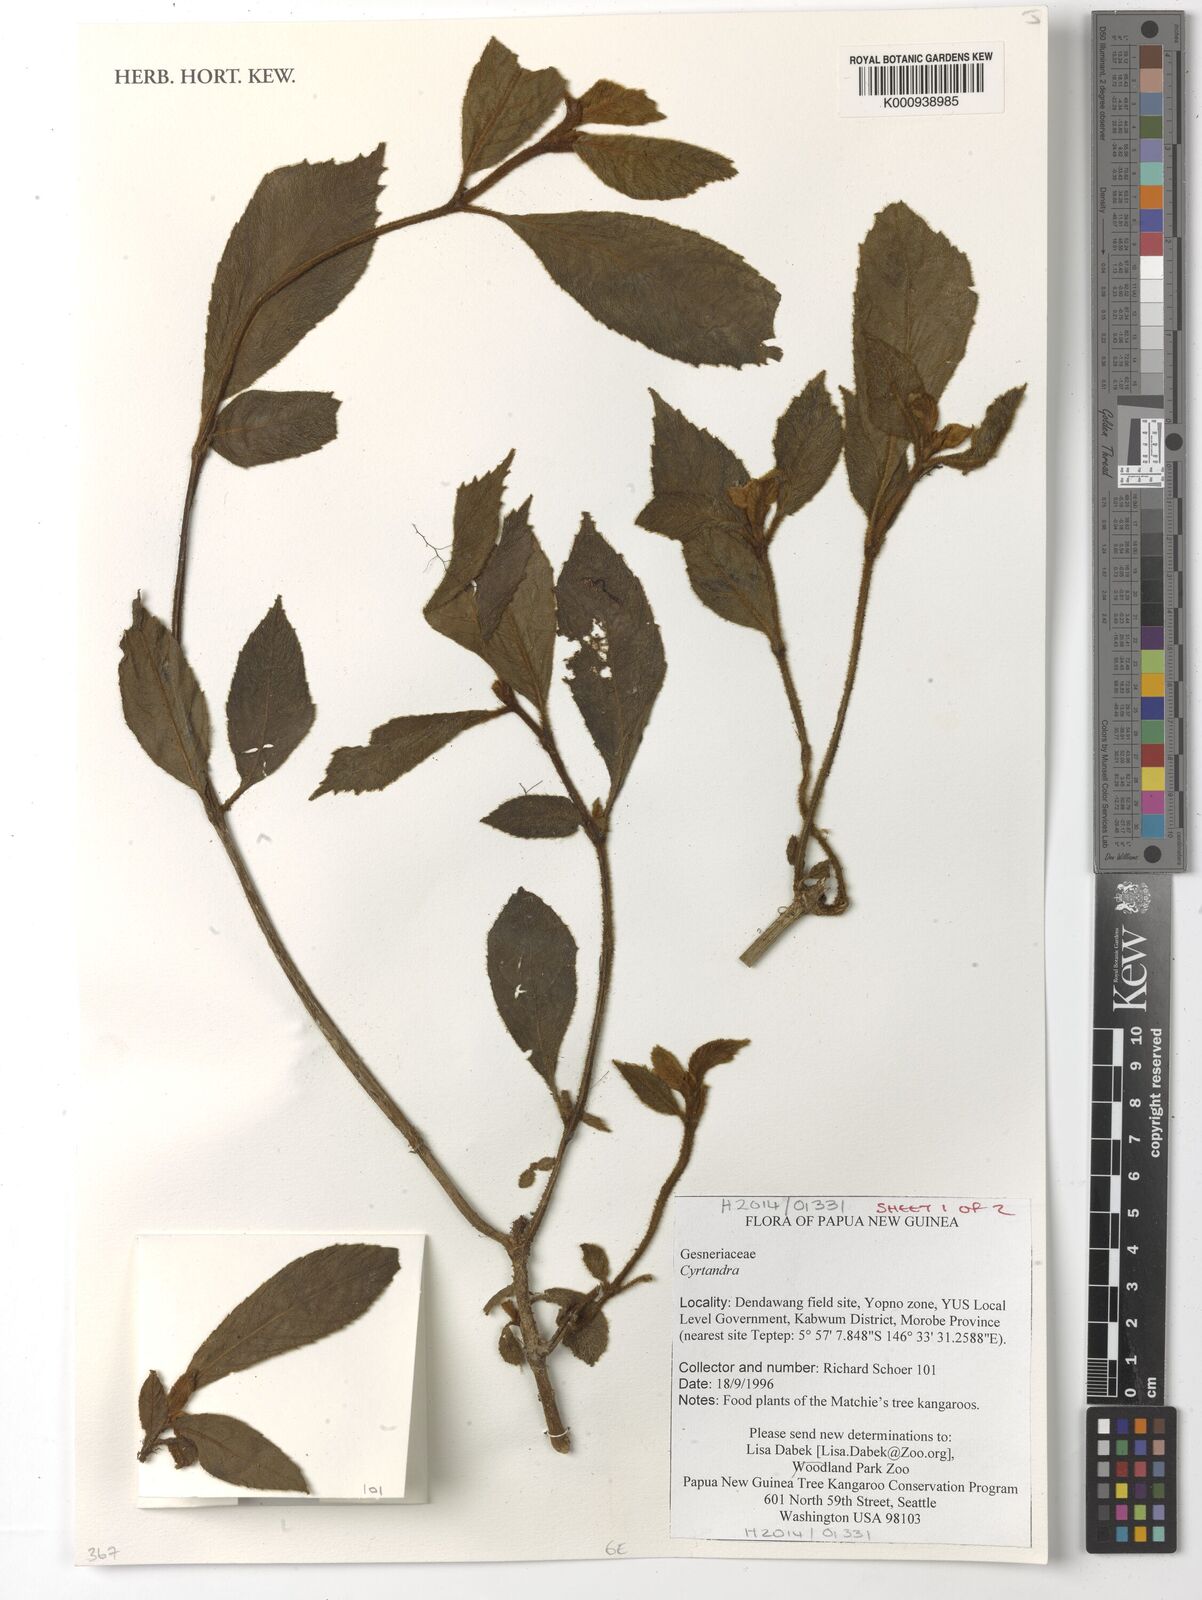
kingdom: Plantae
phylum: Tracheophyta
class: Magnoliopsida
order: Lamiales
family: Gesneriaceae
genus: Cyrtandra
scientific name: Cyrtandra
